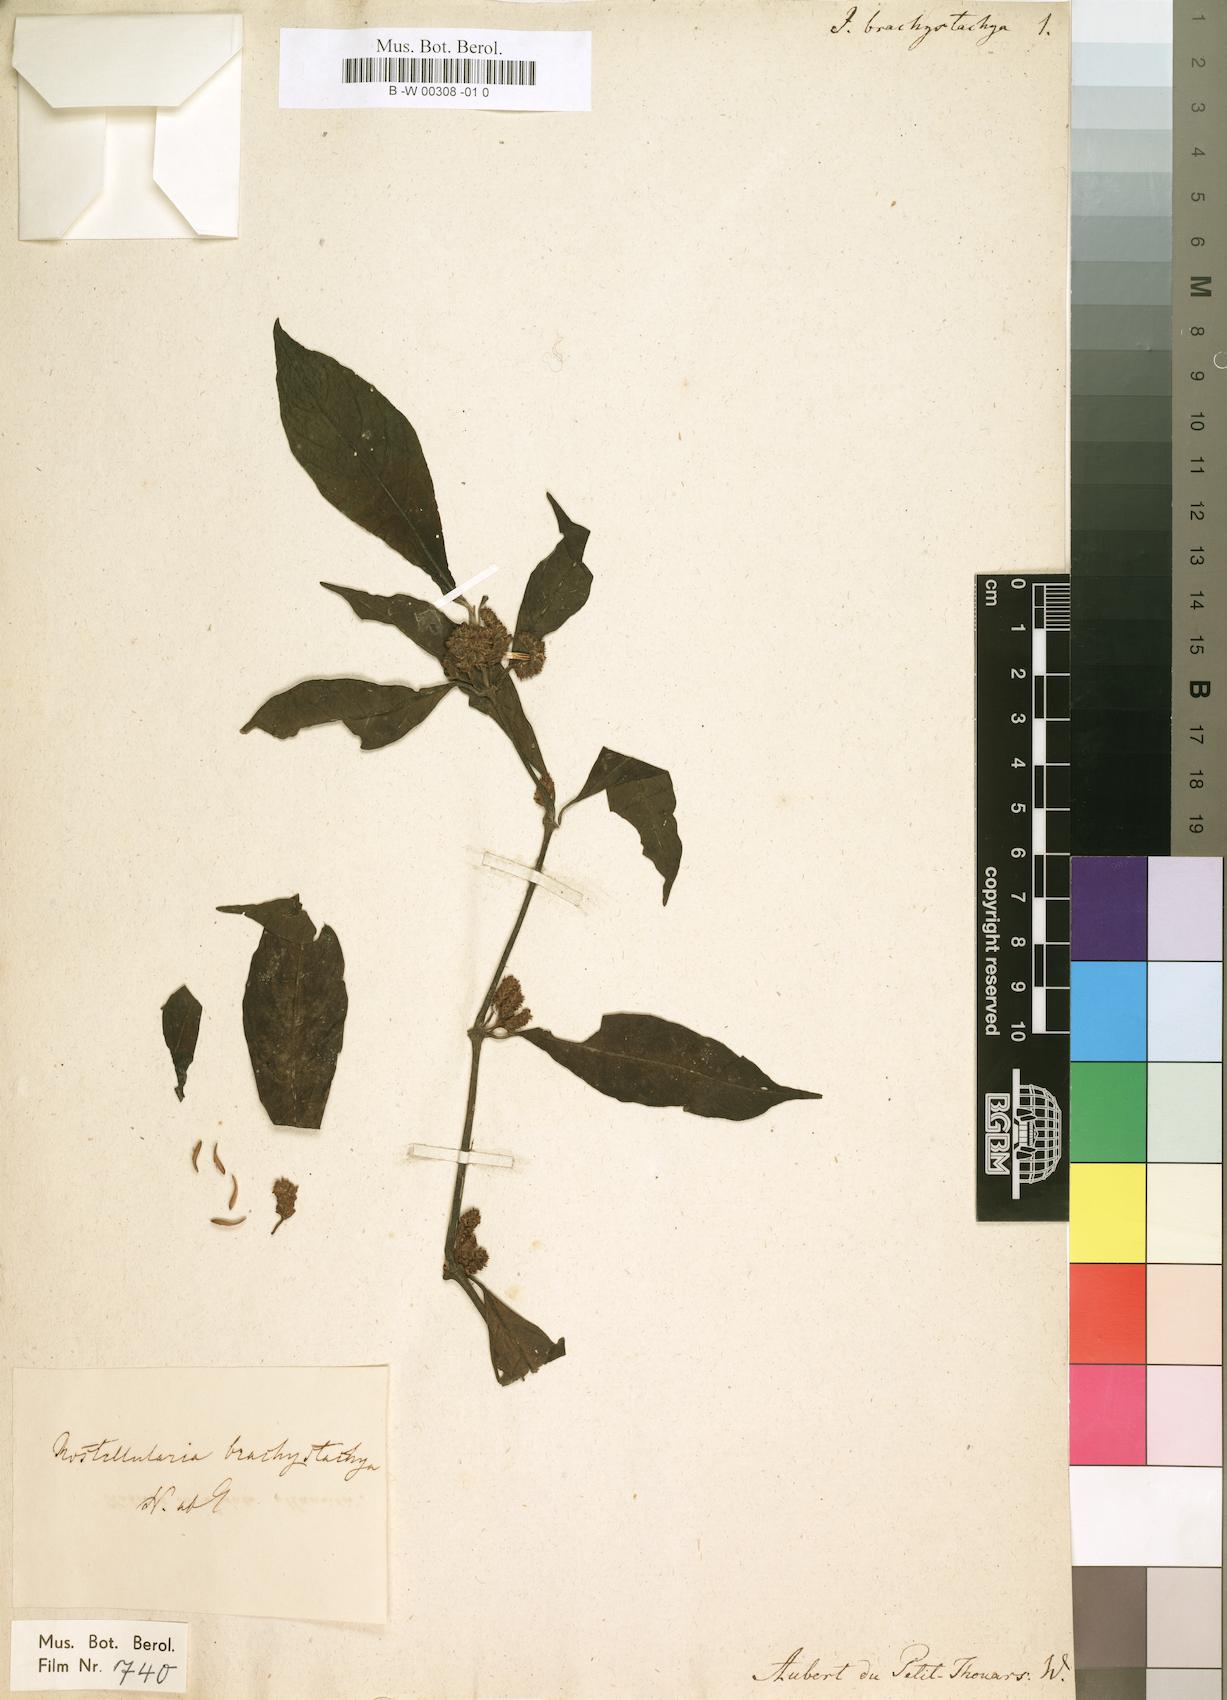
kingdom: Plantae
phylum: Tracheophyta
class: Magnoliopsida
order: Lamiales
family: Acanthaceae
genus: Rostellularia
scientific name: Rostellularia brachystachya
